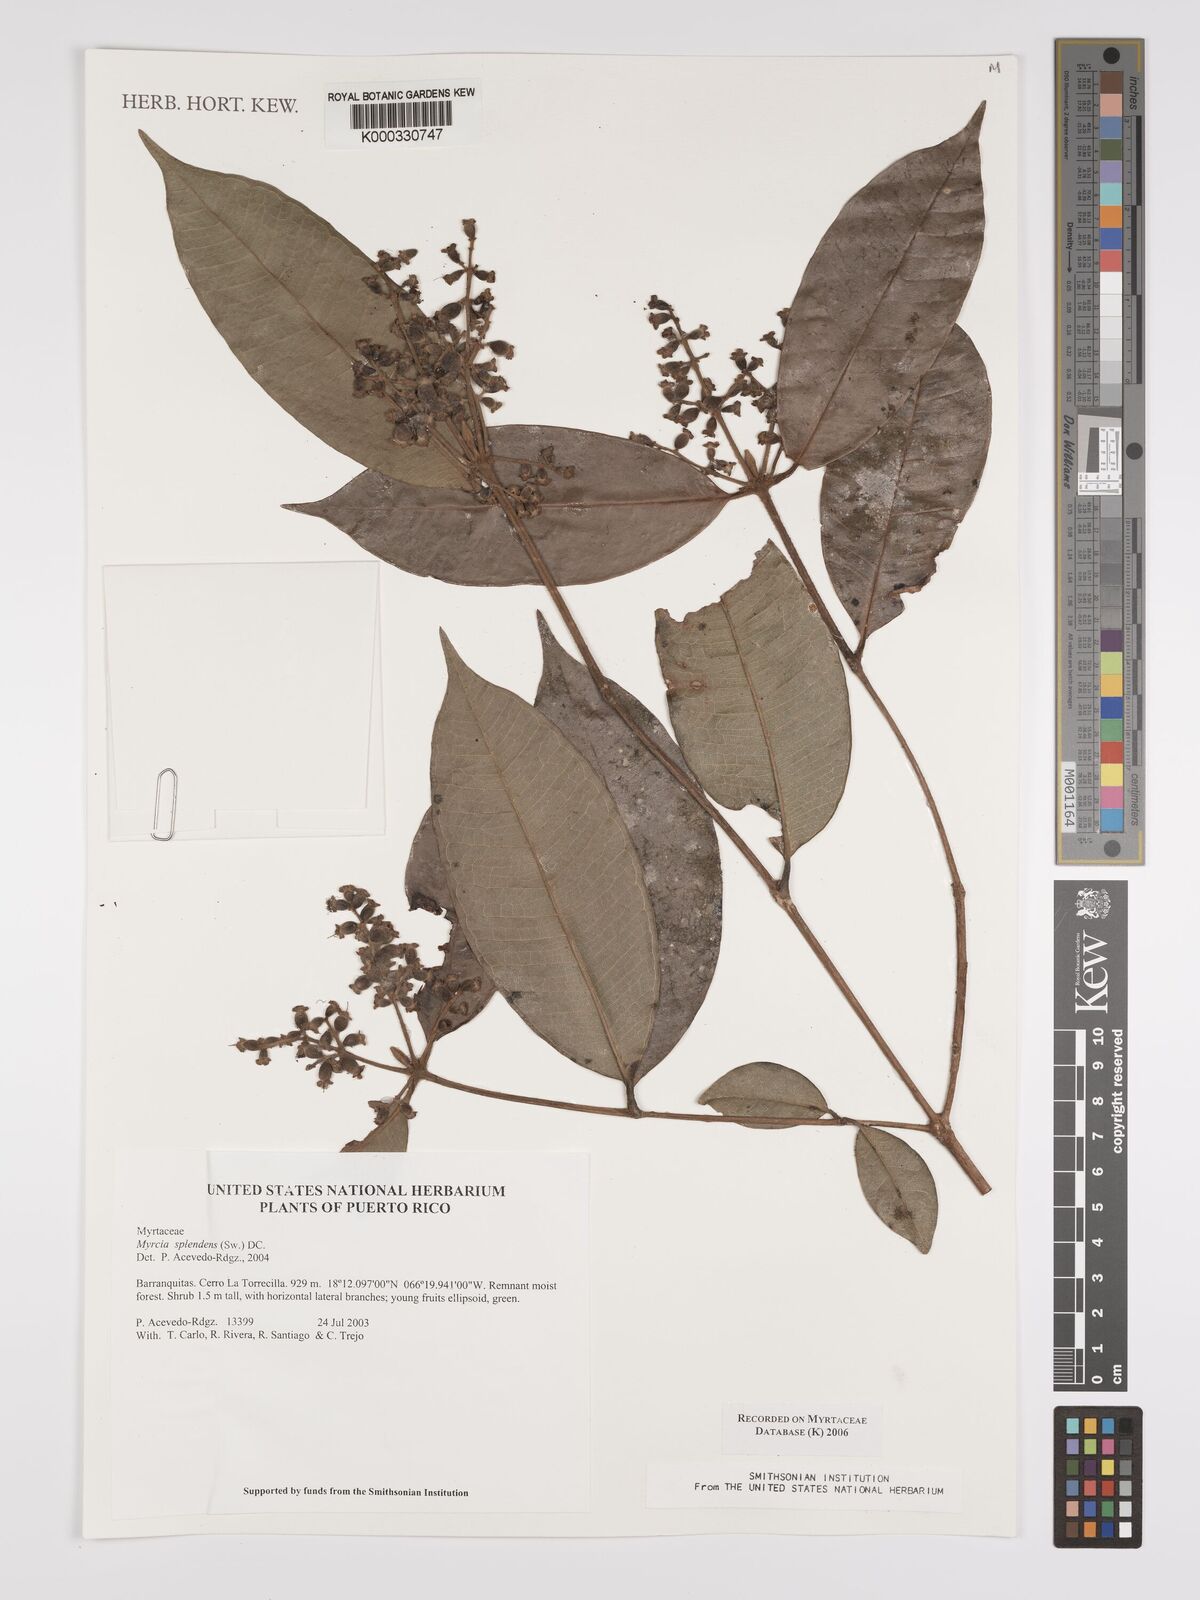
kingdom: Plantae
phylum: Tracheophyta
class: Magnoliopsida
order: Myrtales
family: Myrtaceae
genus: Myrcia
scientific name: Myrcia splendens
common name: Surinam cherry
